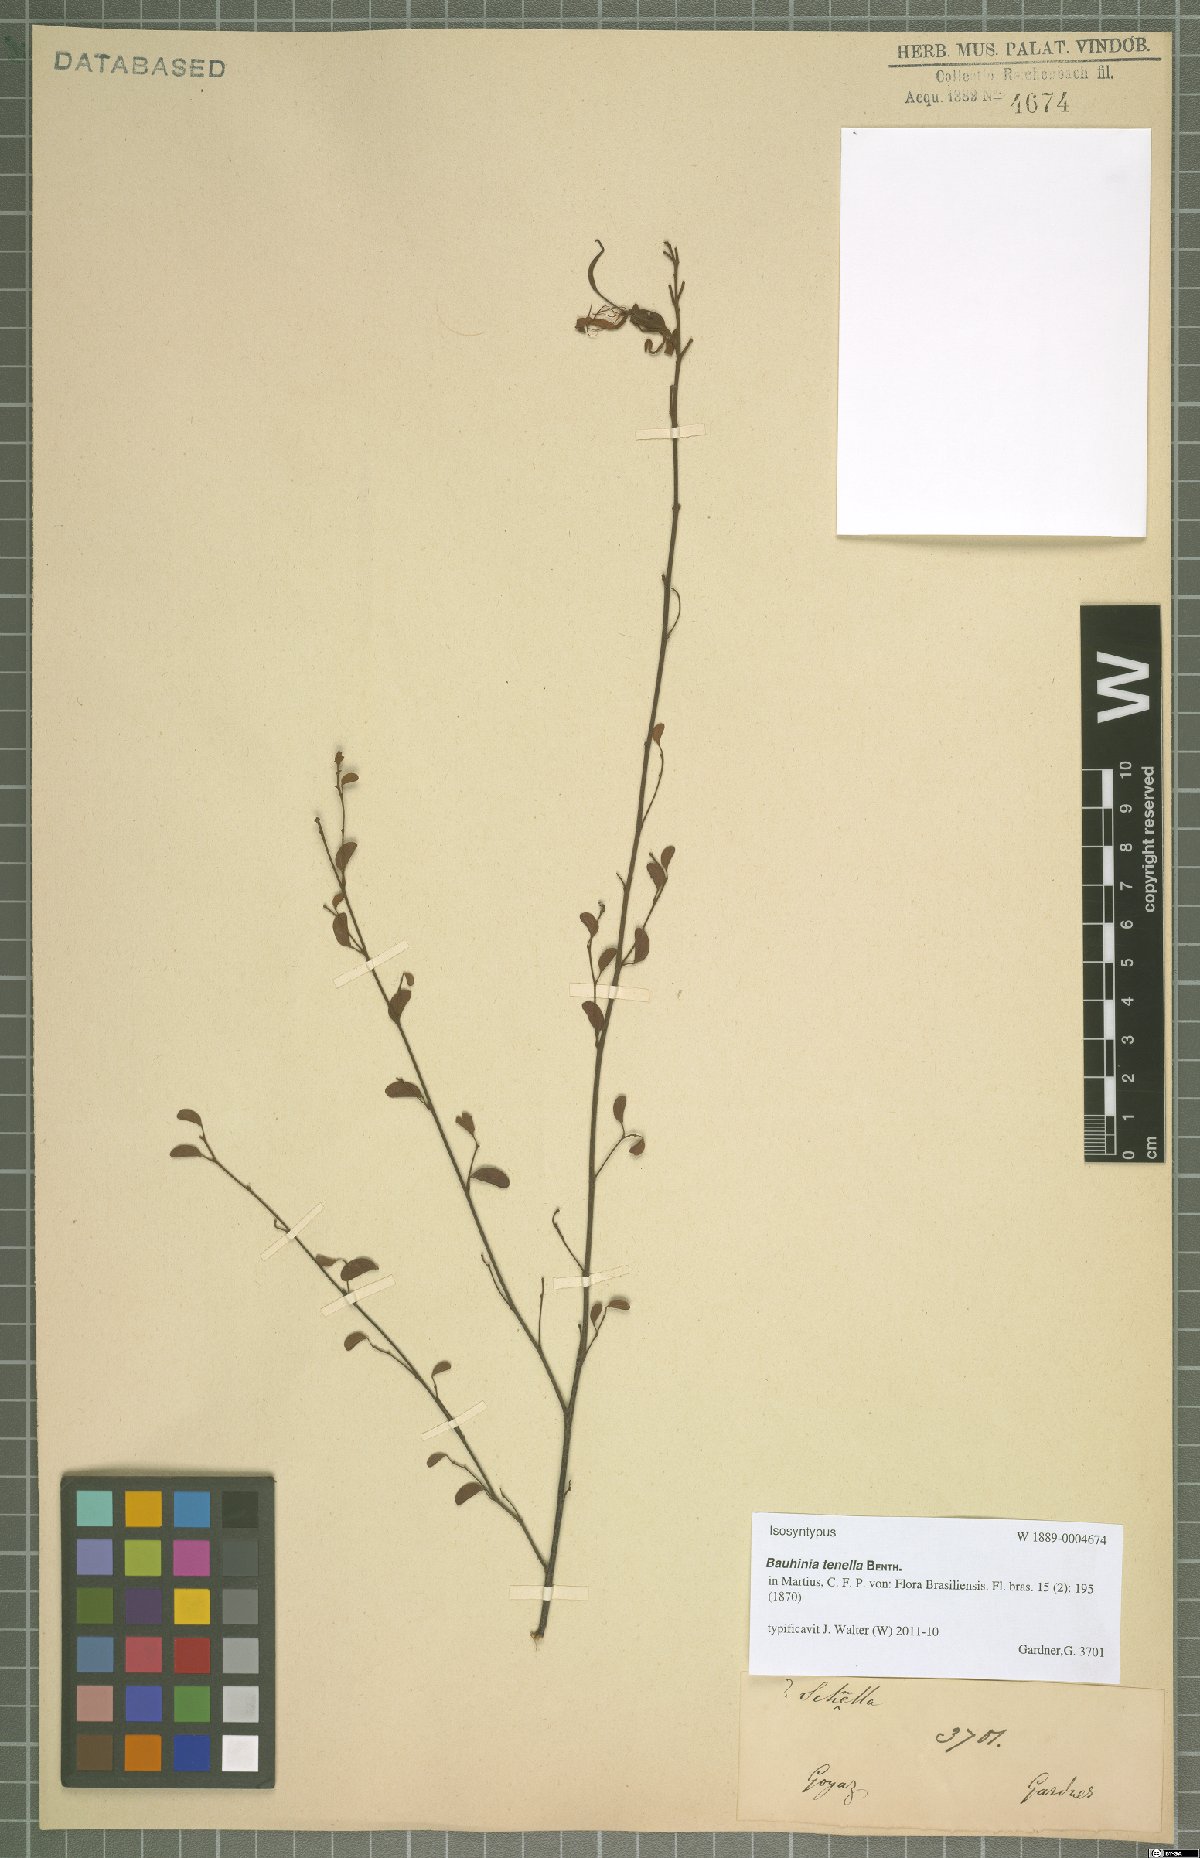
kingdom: Plantae
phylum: Tracheophyta
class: Magnoliopsida
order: Fabales
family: Fabaceae
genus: Bauhinia
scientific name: Bauhinia tenella
